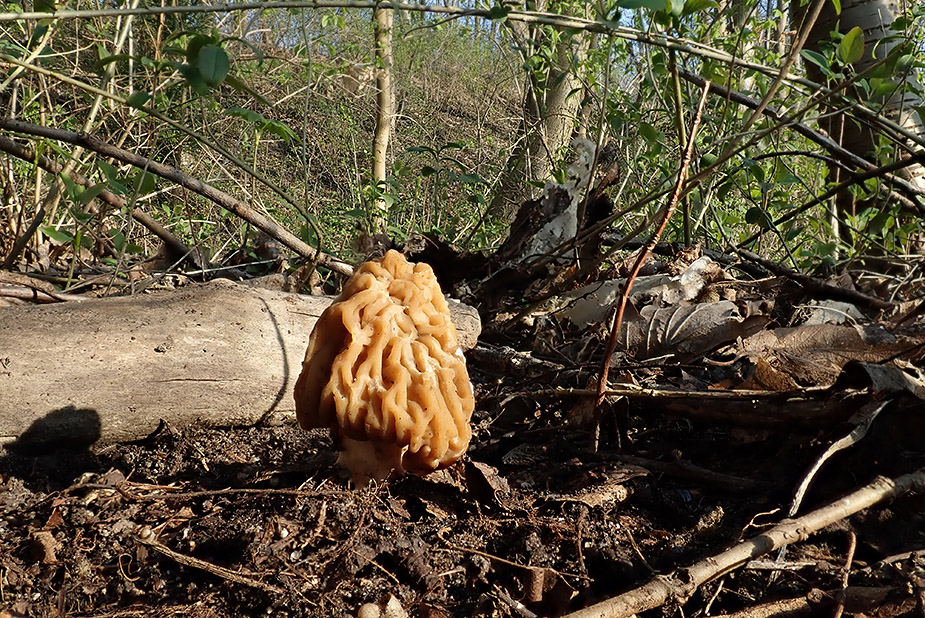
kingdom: Fungi
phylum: Ascomycota
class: Pezizomycetes
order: Pezizales
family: Morchellaceae
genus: Verpa
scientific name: Verpa bohemica
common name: rynket klokkemorkel
